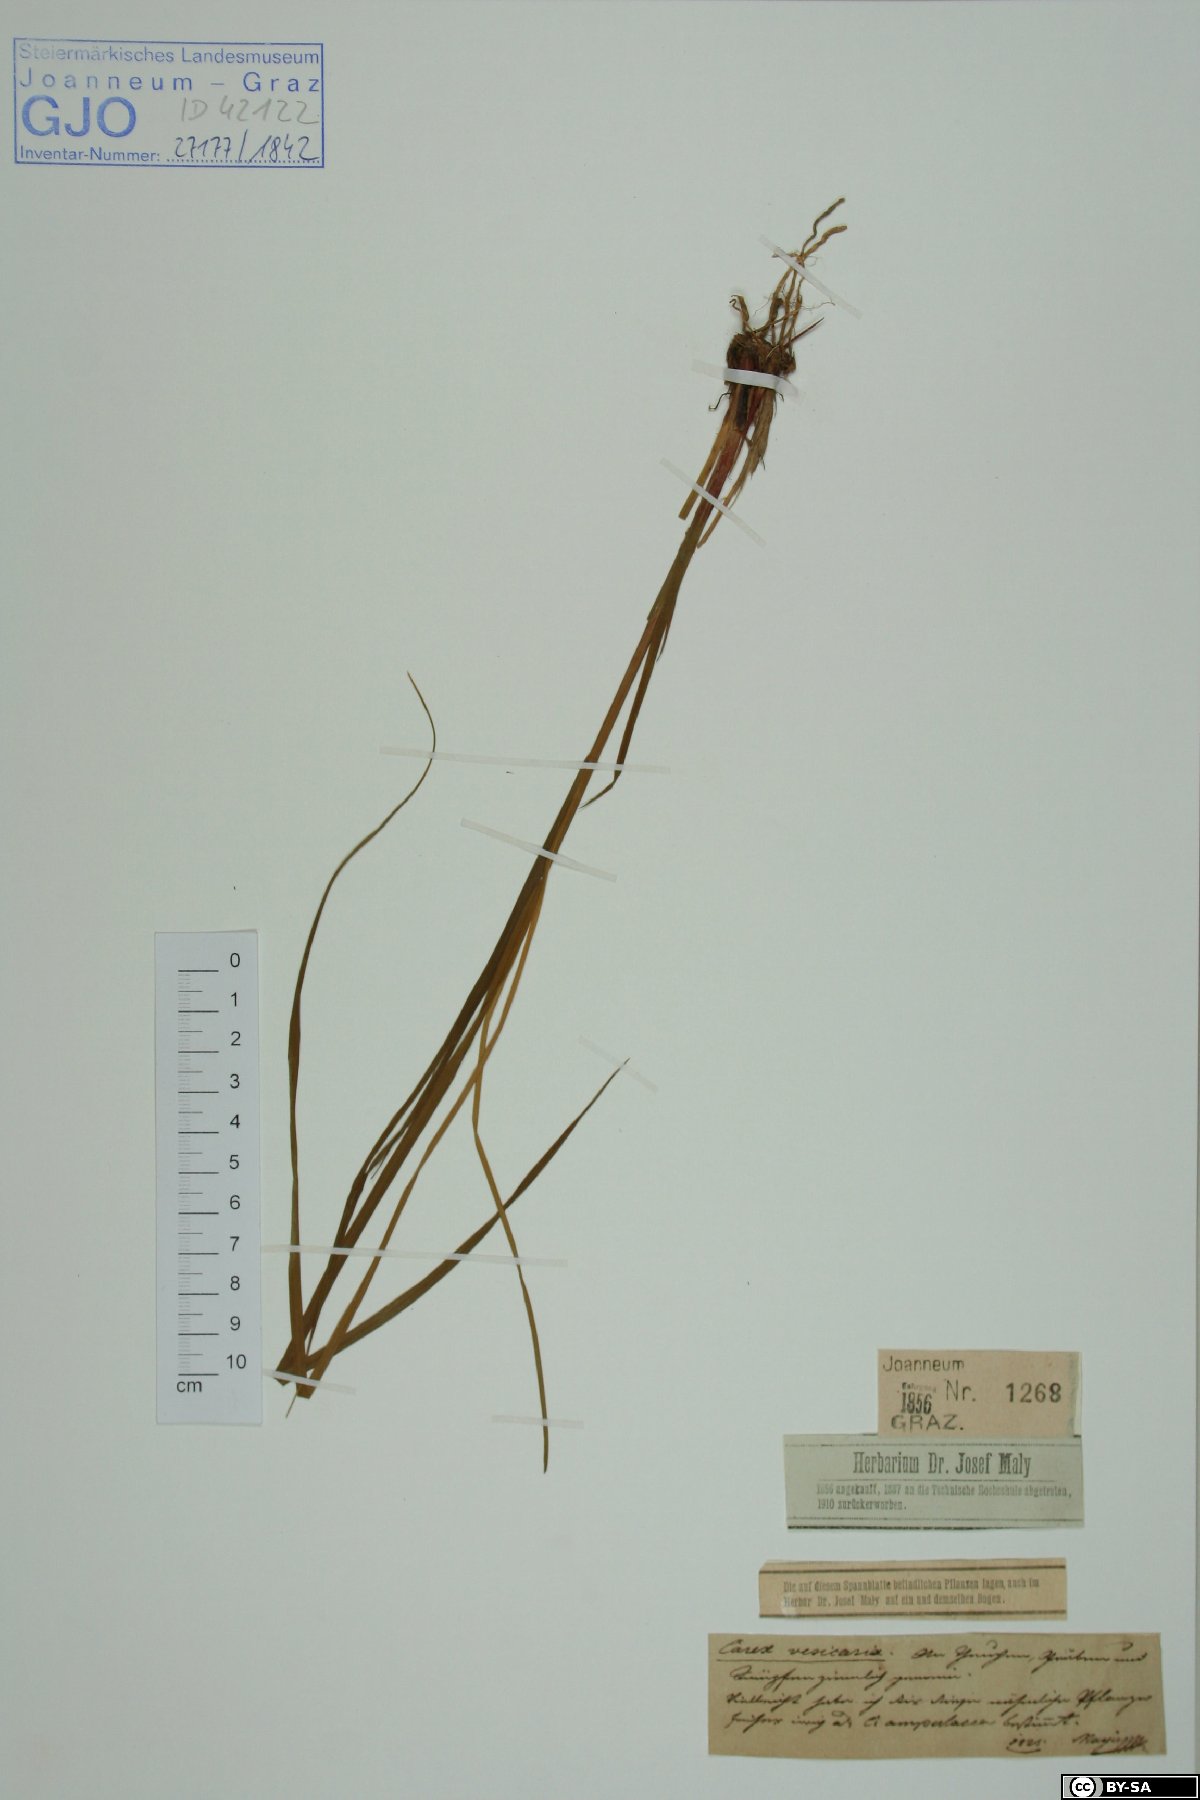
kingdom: Plantae
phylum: Tracheophyta
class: Liliopsida
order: Poales
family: Cyperaceae
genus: Carex
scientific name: Carex vesicaria
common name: Bladder-sedge
